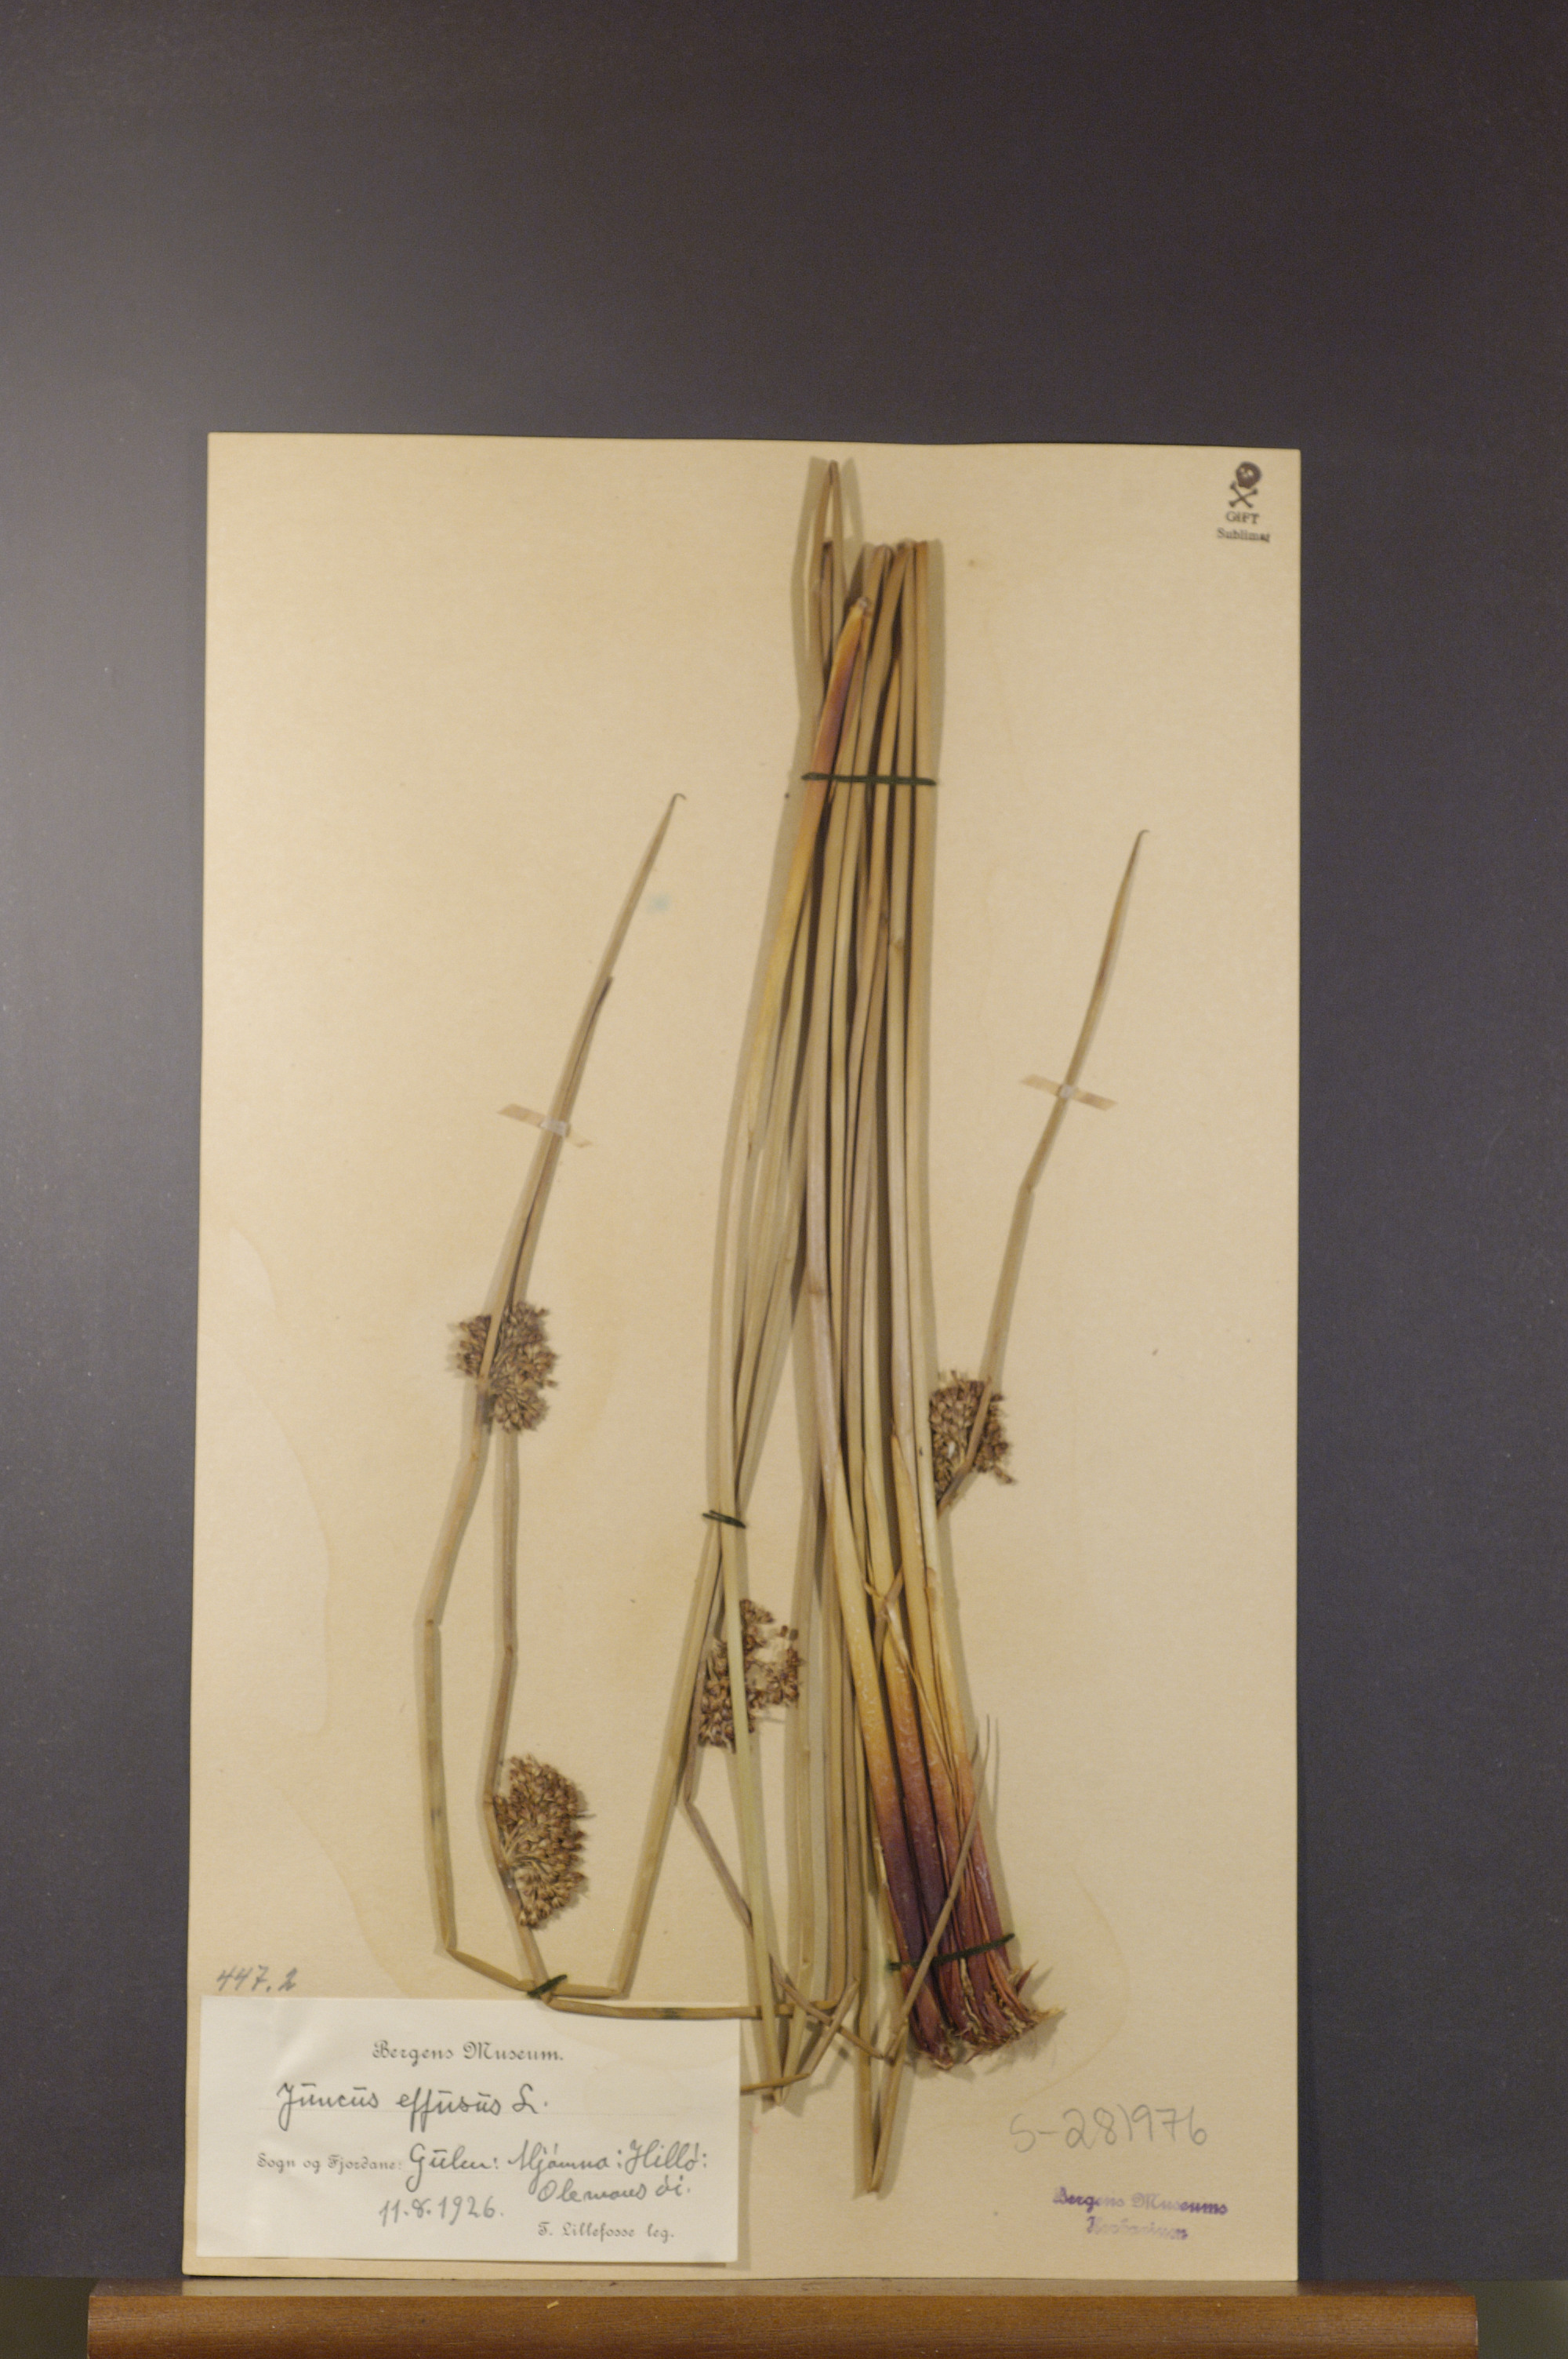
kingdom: Plantae
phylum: Tracheophyta
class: Liliopsida
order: Poales
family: Juncaceae
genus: Juncus
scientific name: Juncus effusus
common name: Soft rush
